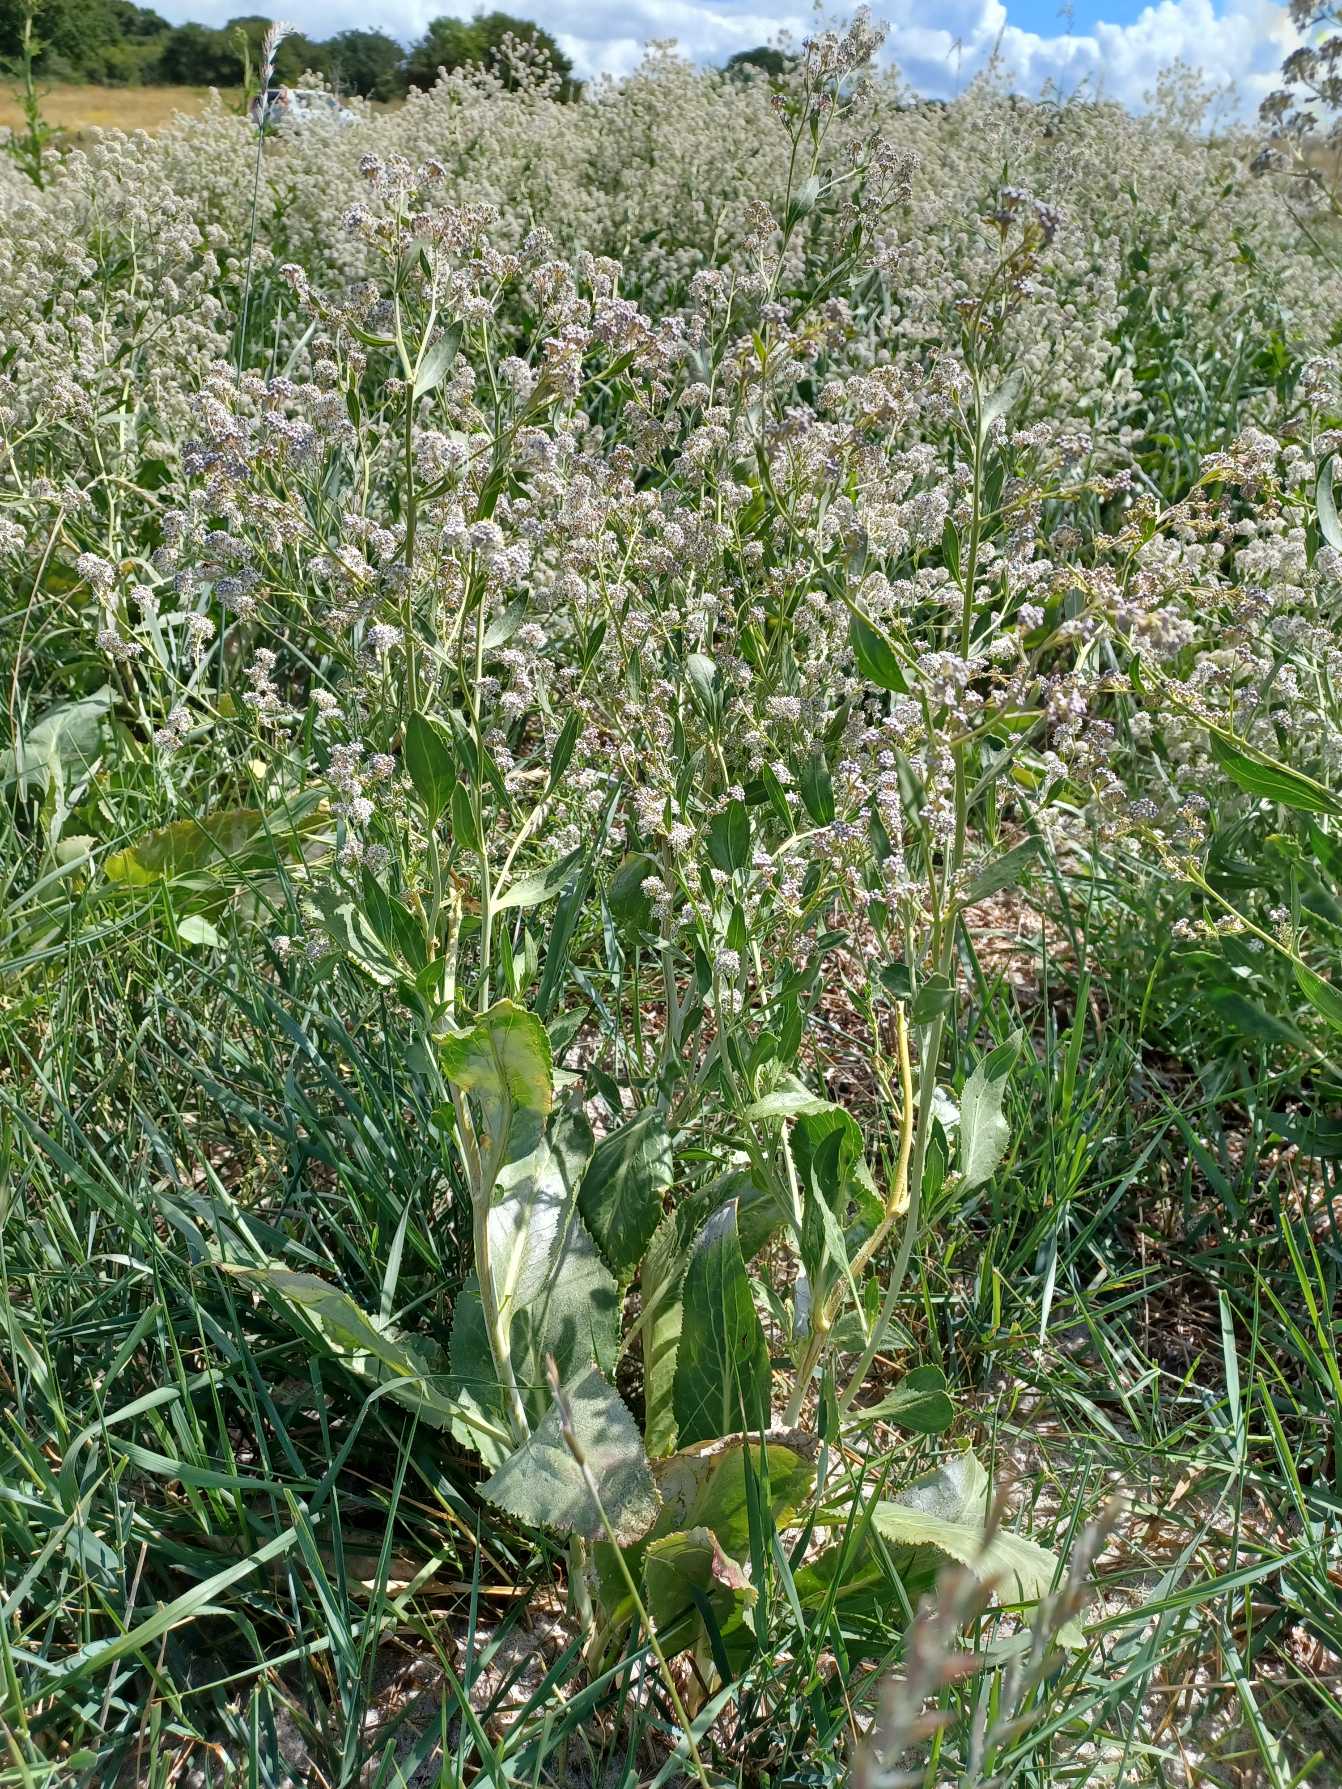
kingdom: Plantae
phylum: Tracheophyta
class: Magnoliopsida
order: Brassicales
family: Brassicaceae
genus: Lepidium
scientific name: Lepidium latifolium
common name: Strand-karse
